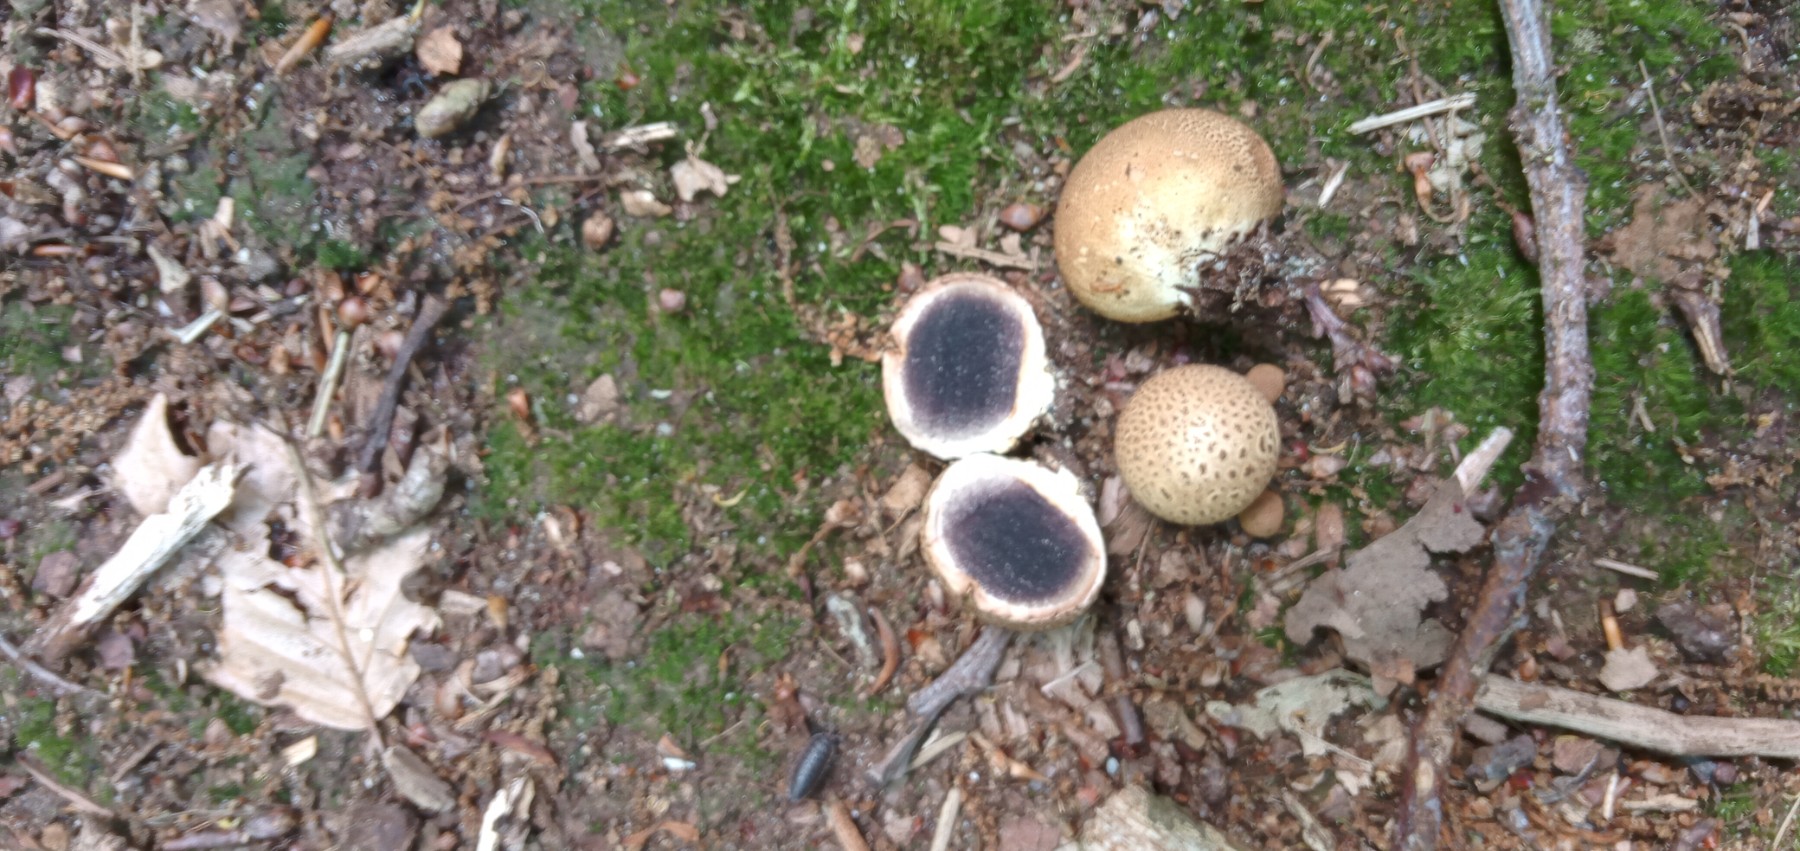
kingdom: Fungi
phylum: Basidiomycota
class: Agaricomycetes
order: Boletales
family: Sclerodermataceae
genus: Scleroderma
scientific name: Scleroderma citrinum
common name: almindelig bruskbold
